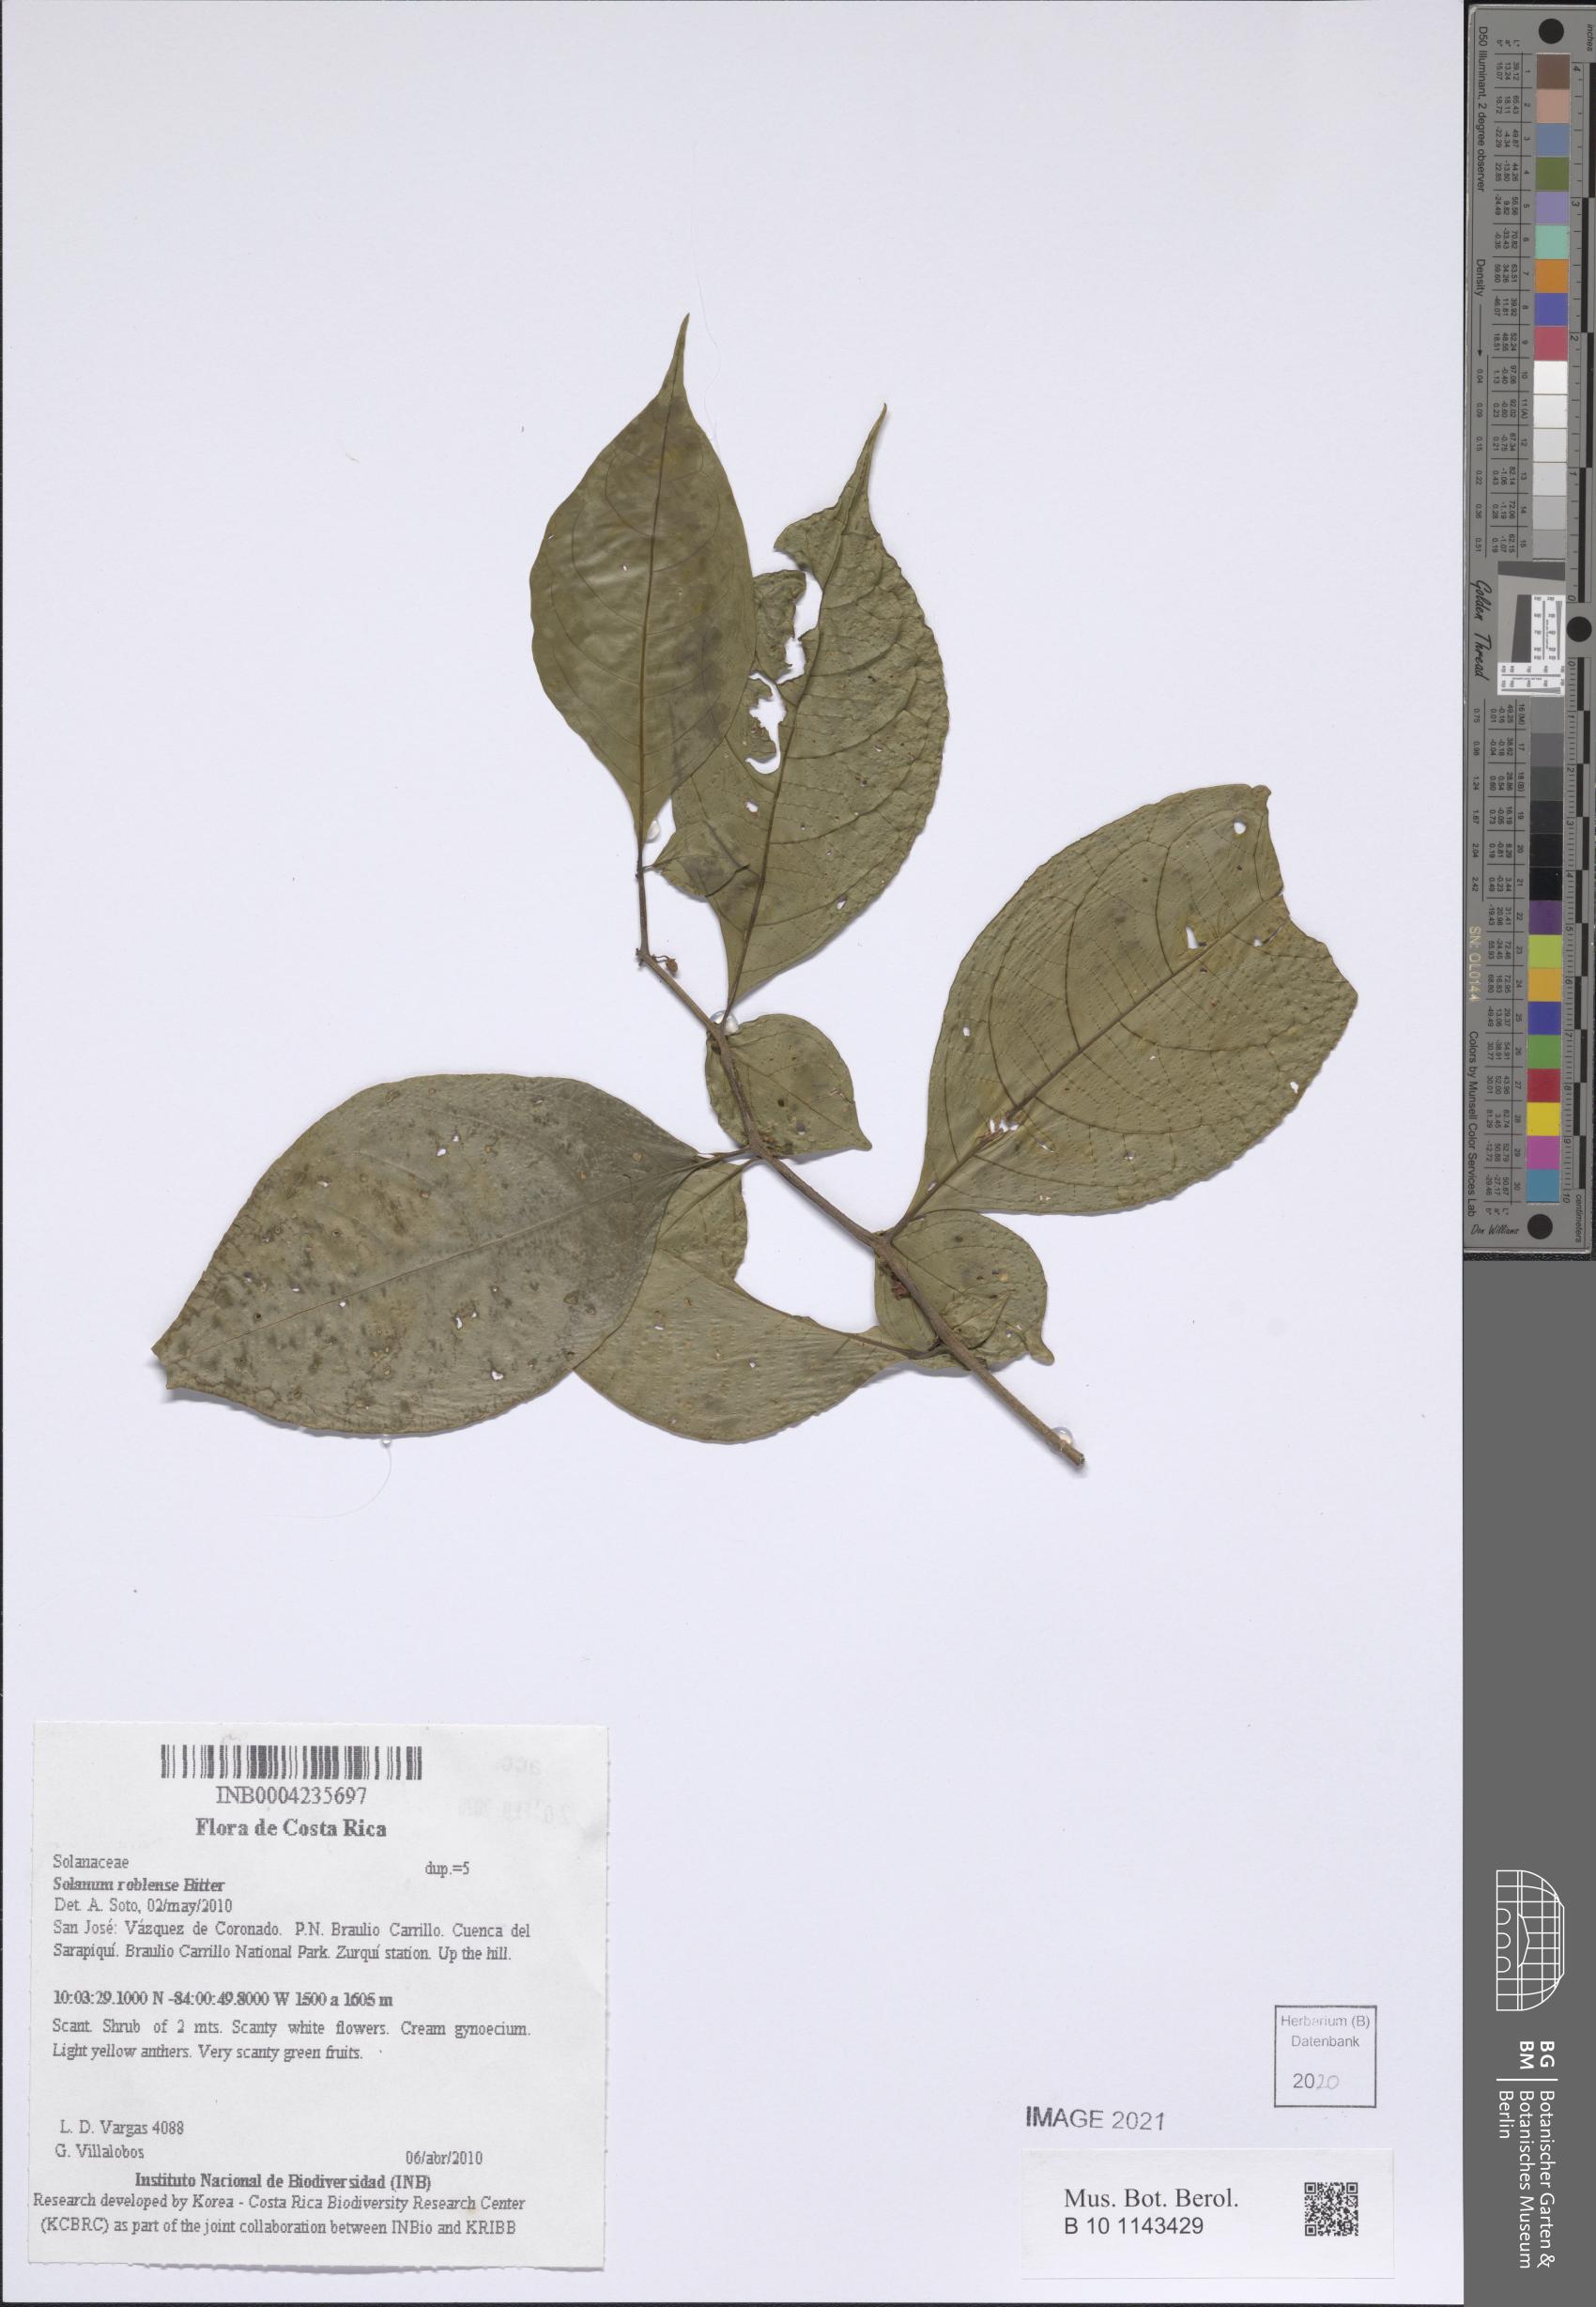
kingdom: Plantae
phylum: Tracheophyta
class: Magnoliopsida
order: Solanales
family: Solanaceae
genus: Solanum
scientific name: Solanum roblense
